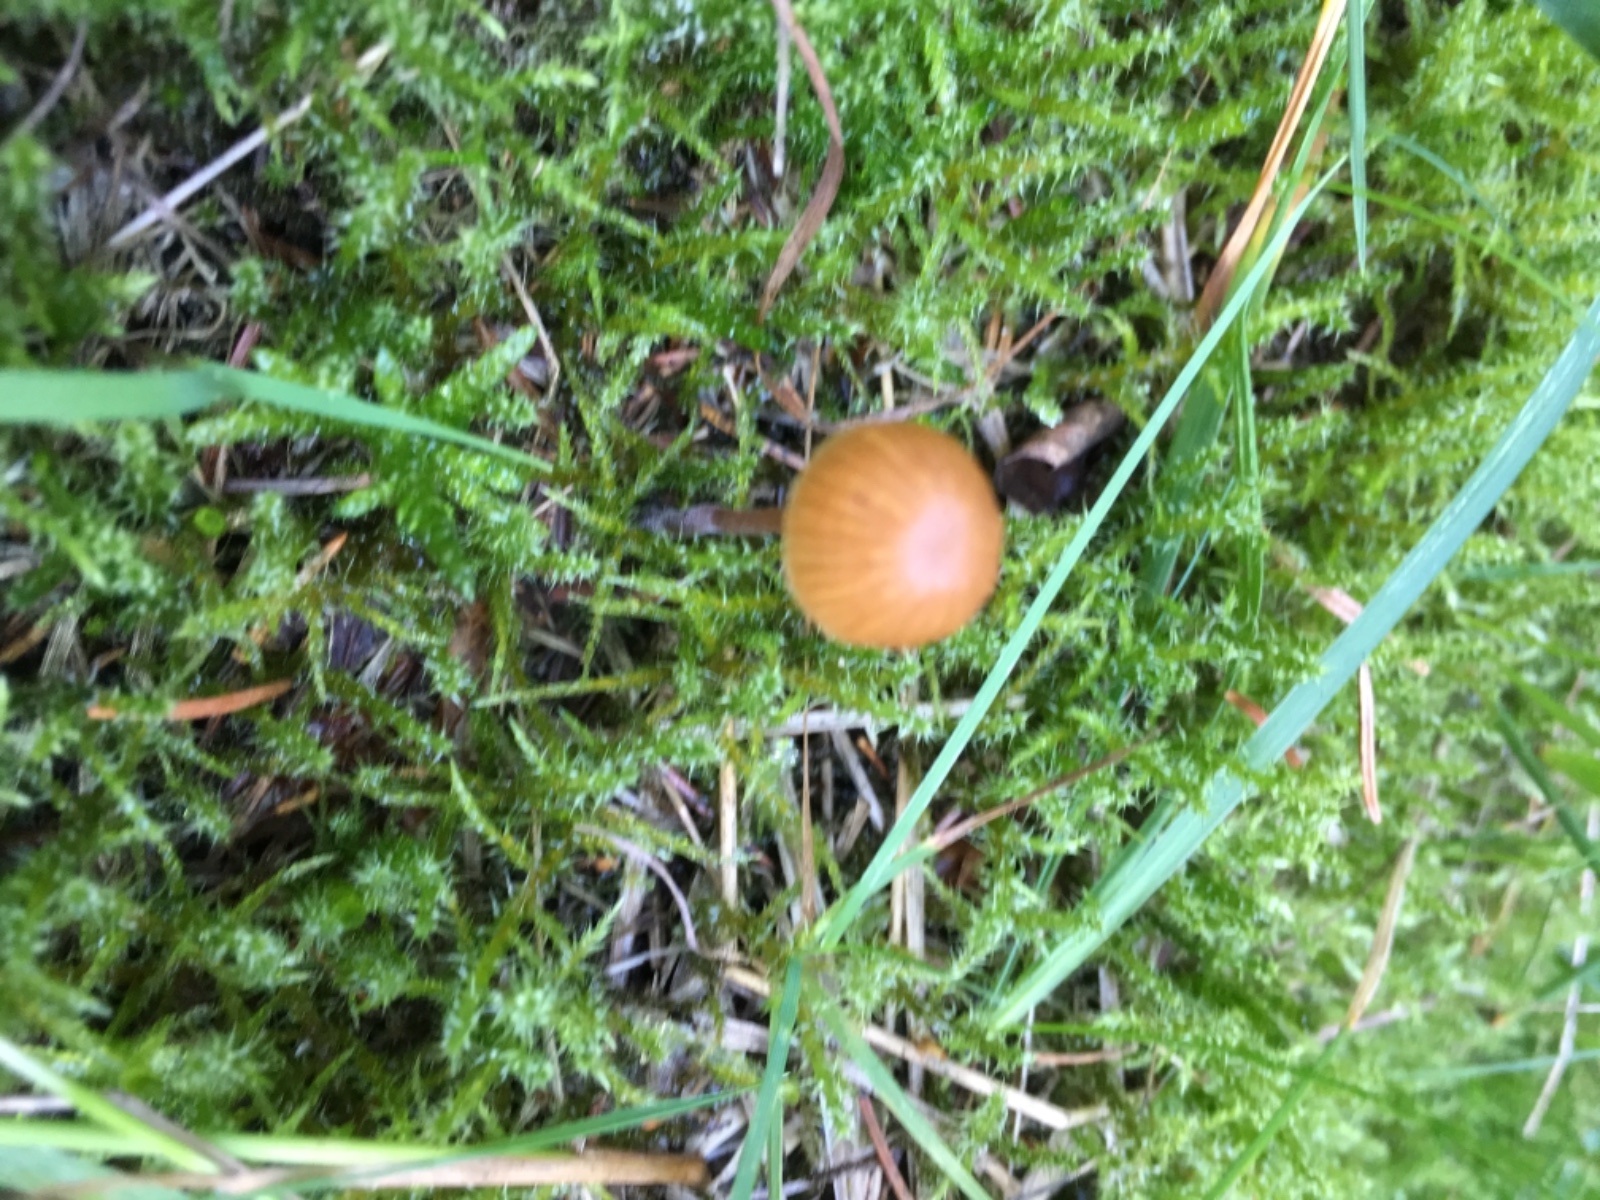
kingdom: Fungi
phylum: Basidiomycota
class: Agaricomycetes
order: Agaricales
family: Hymenogastraceae
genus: Galerina
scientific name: Galerina
